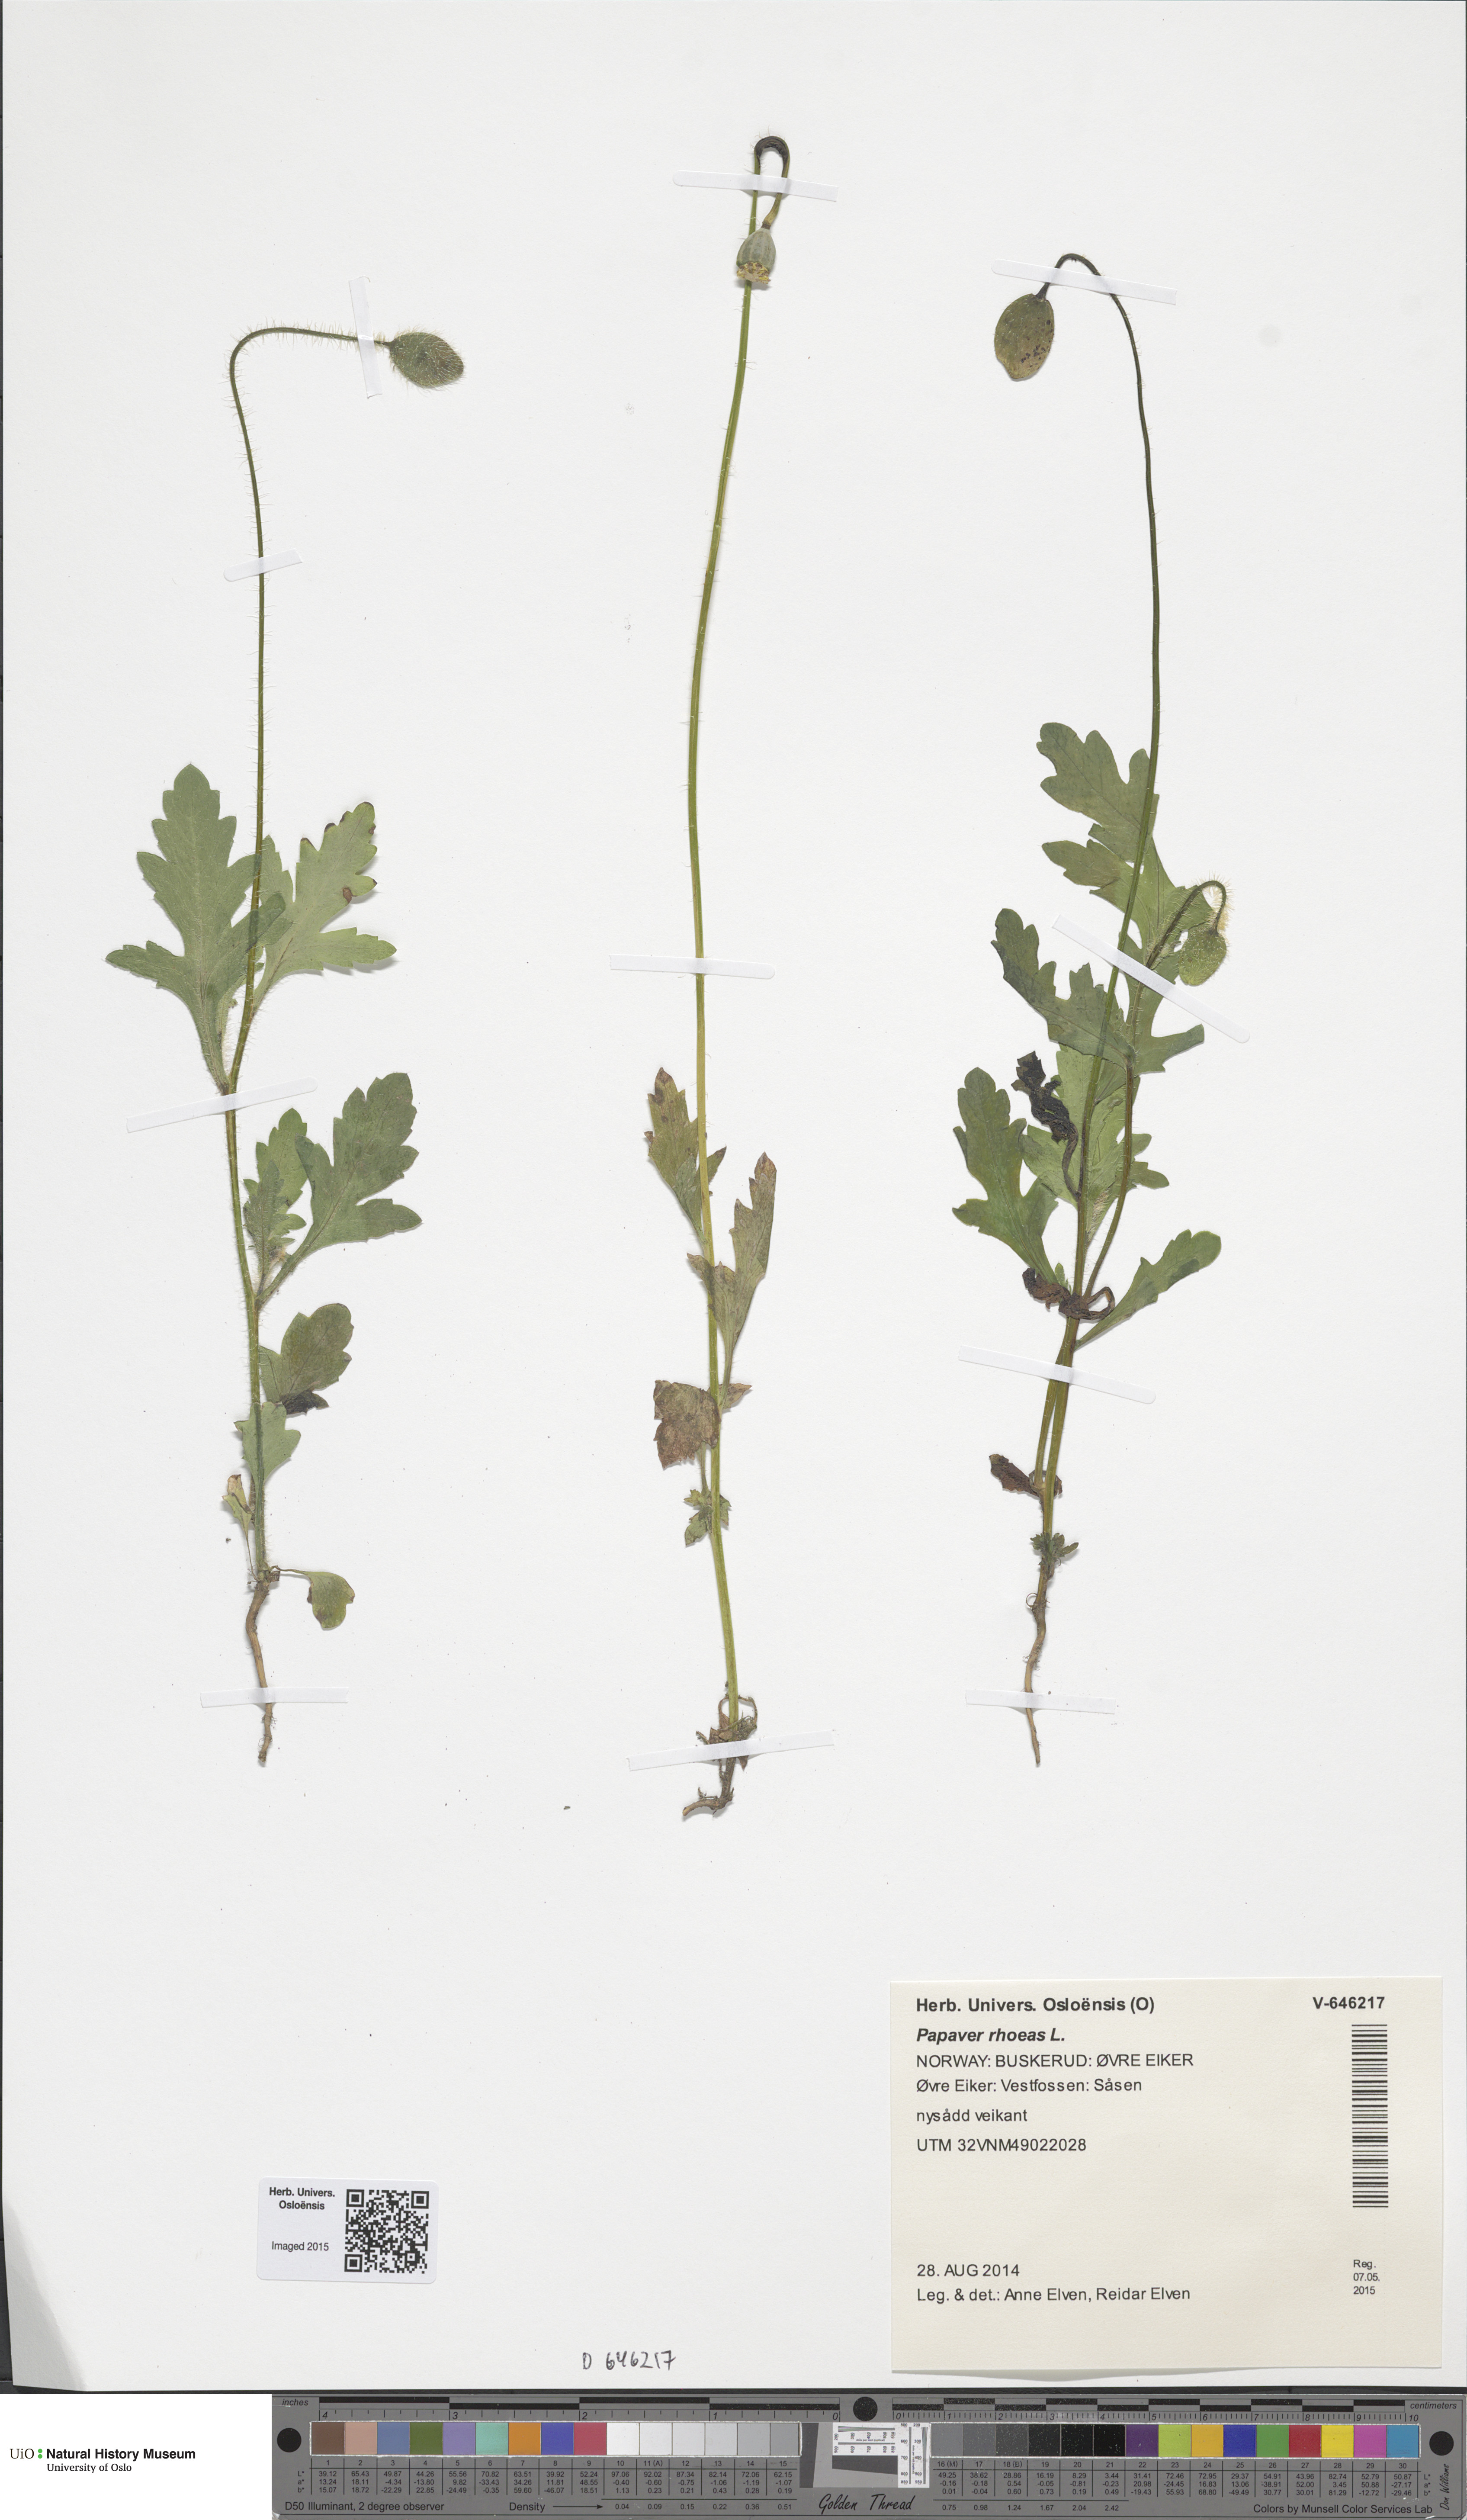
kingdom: Plantae
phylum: Tracheophyta
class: Magnoliopsida
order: Ranunculales
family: Papaveraceae
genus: Papaver
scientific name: Papaver rhoeas
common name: Corn poppy
